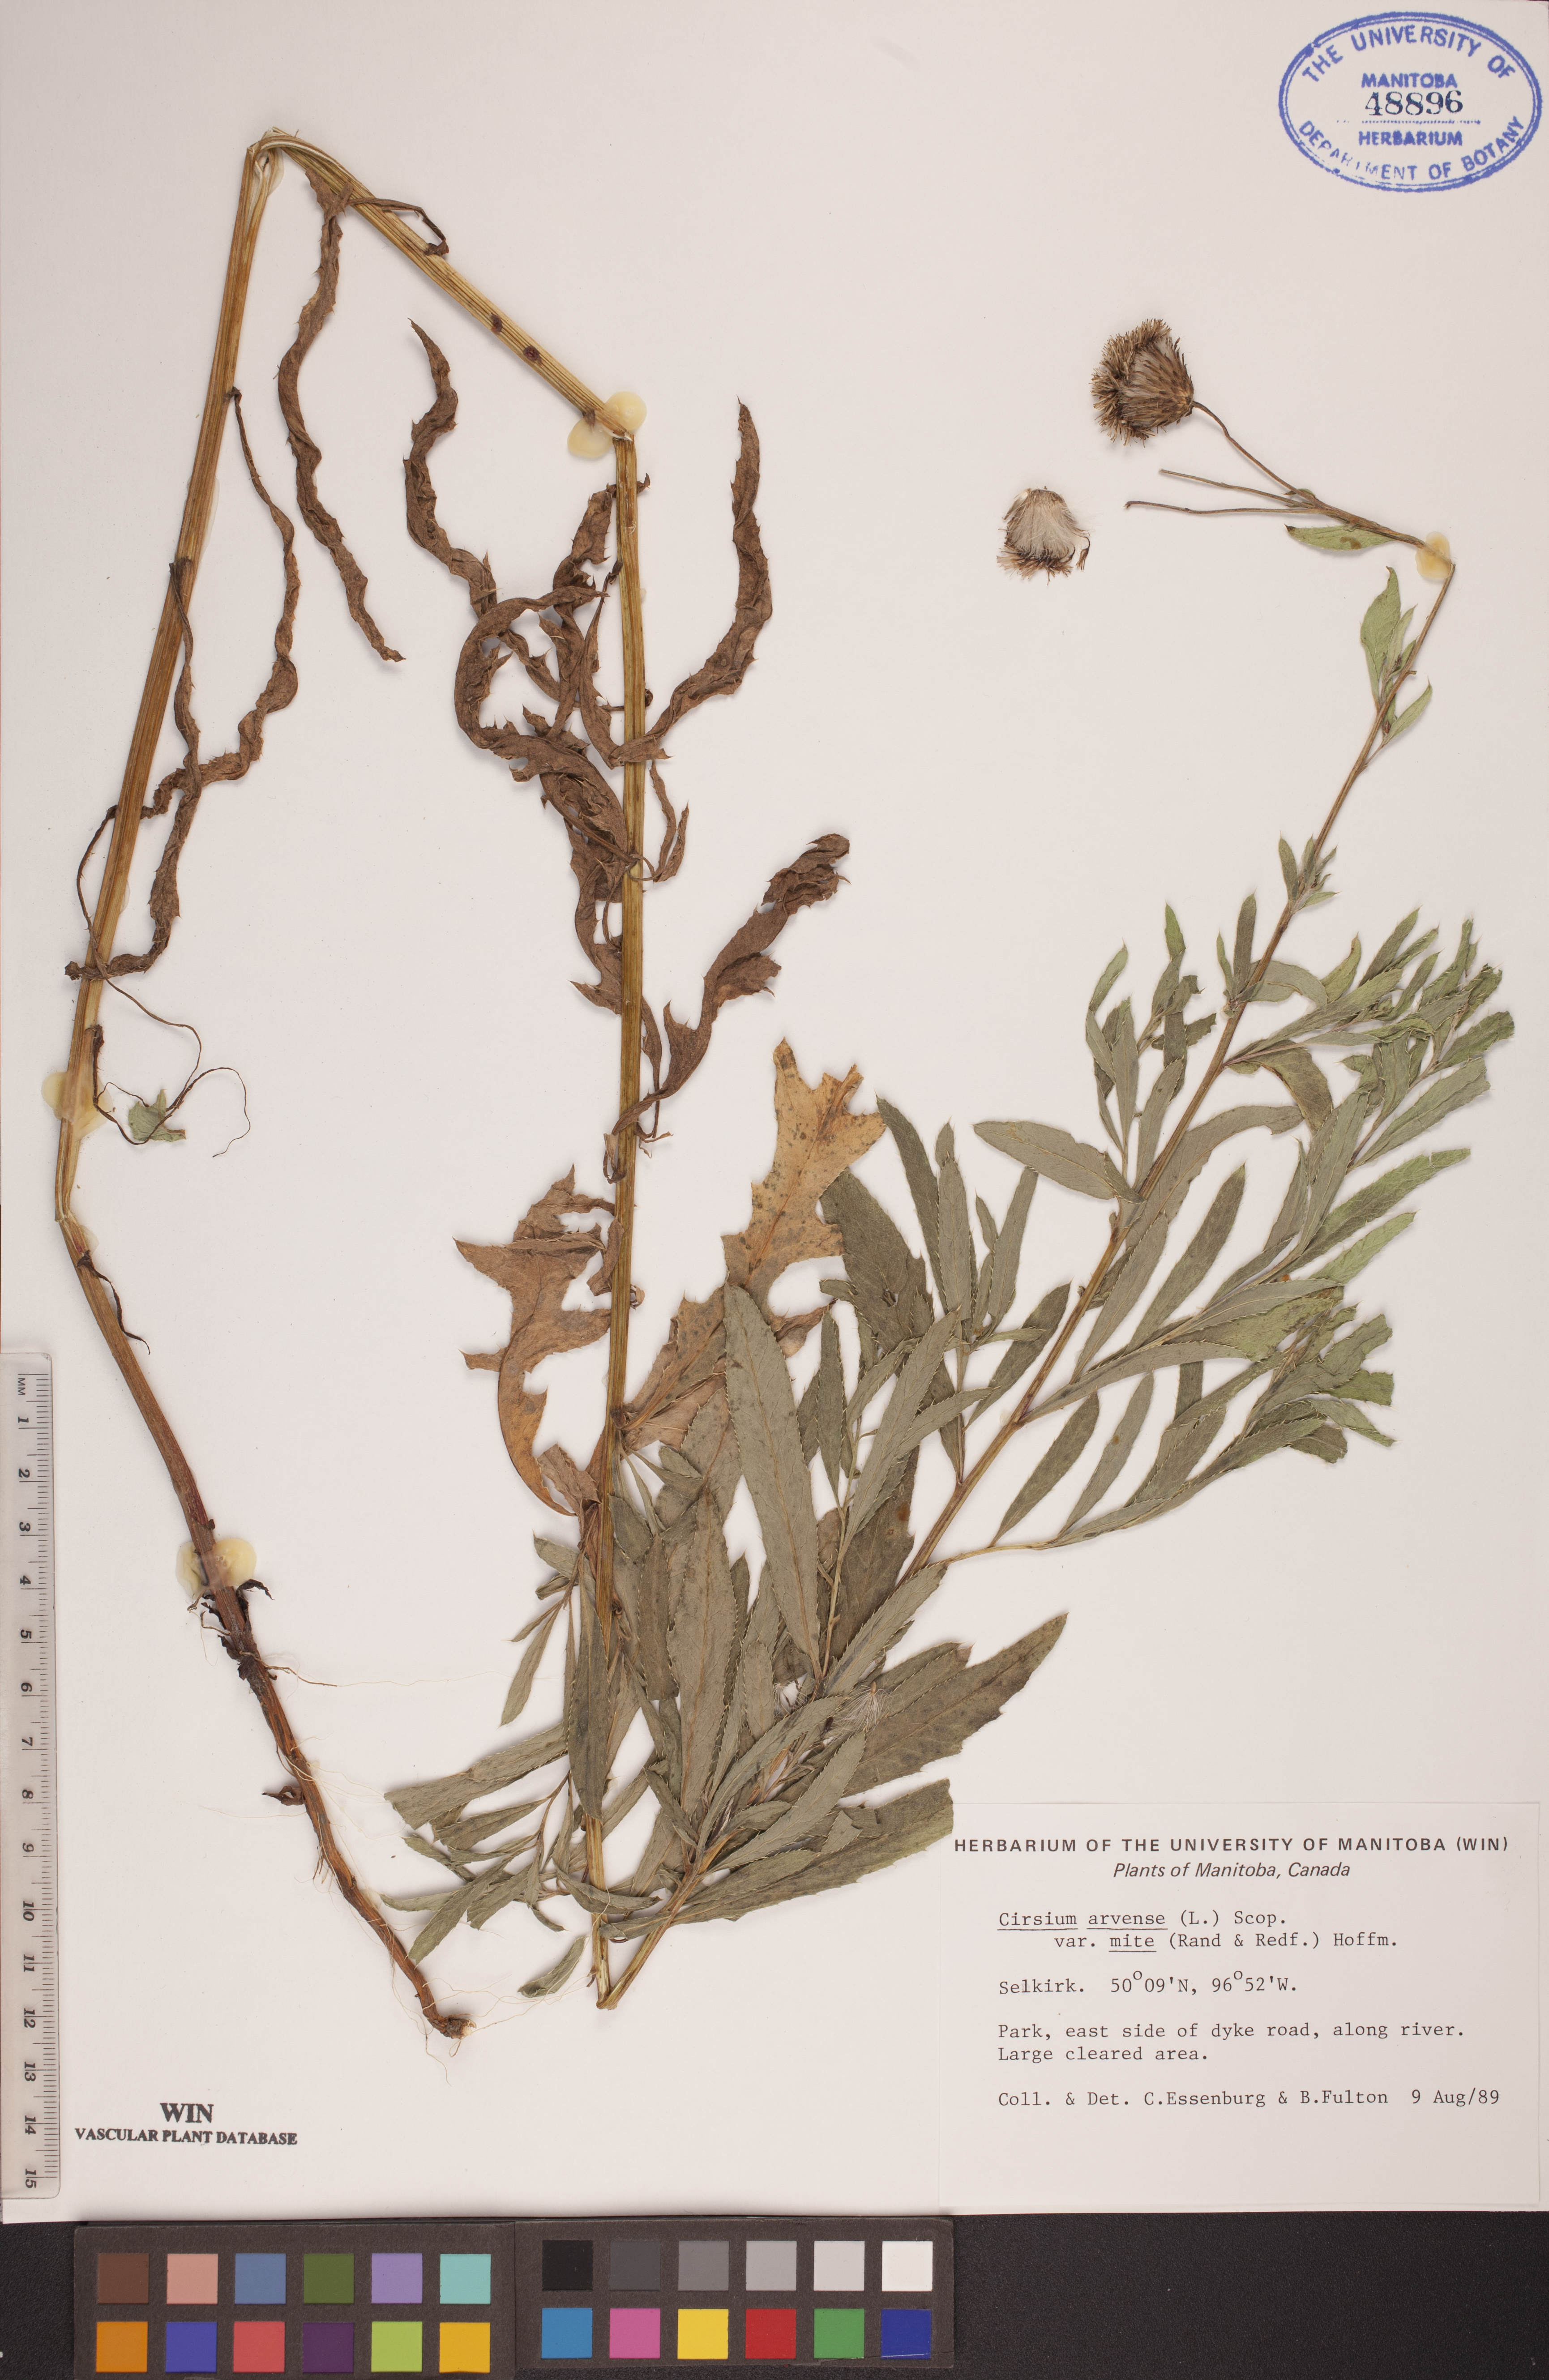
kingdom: Plantae
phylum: Tracheophyta
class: Magnoliopsida
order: Asterales
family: Asteraceae
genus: Cirsium
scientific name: Cirsium arvense
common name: Creeping thistle
